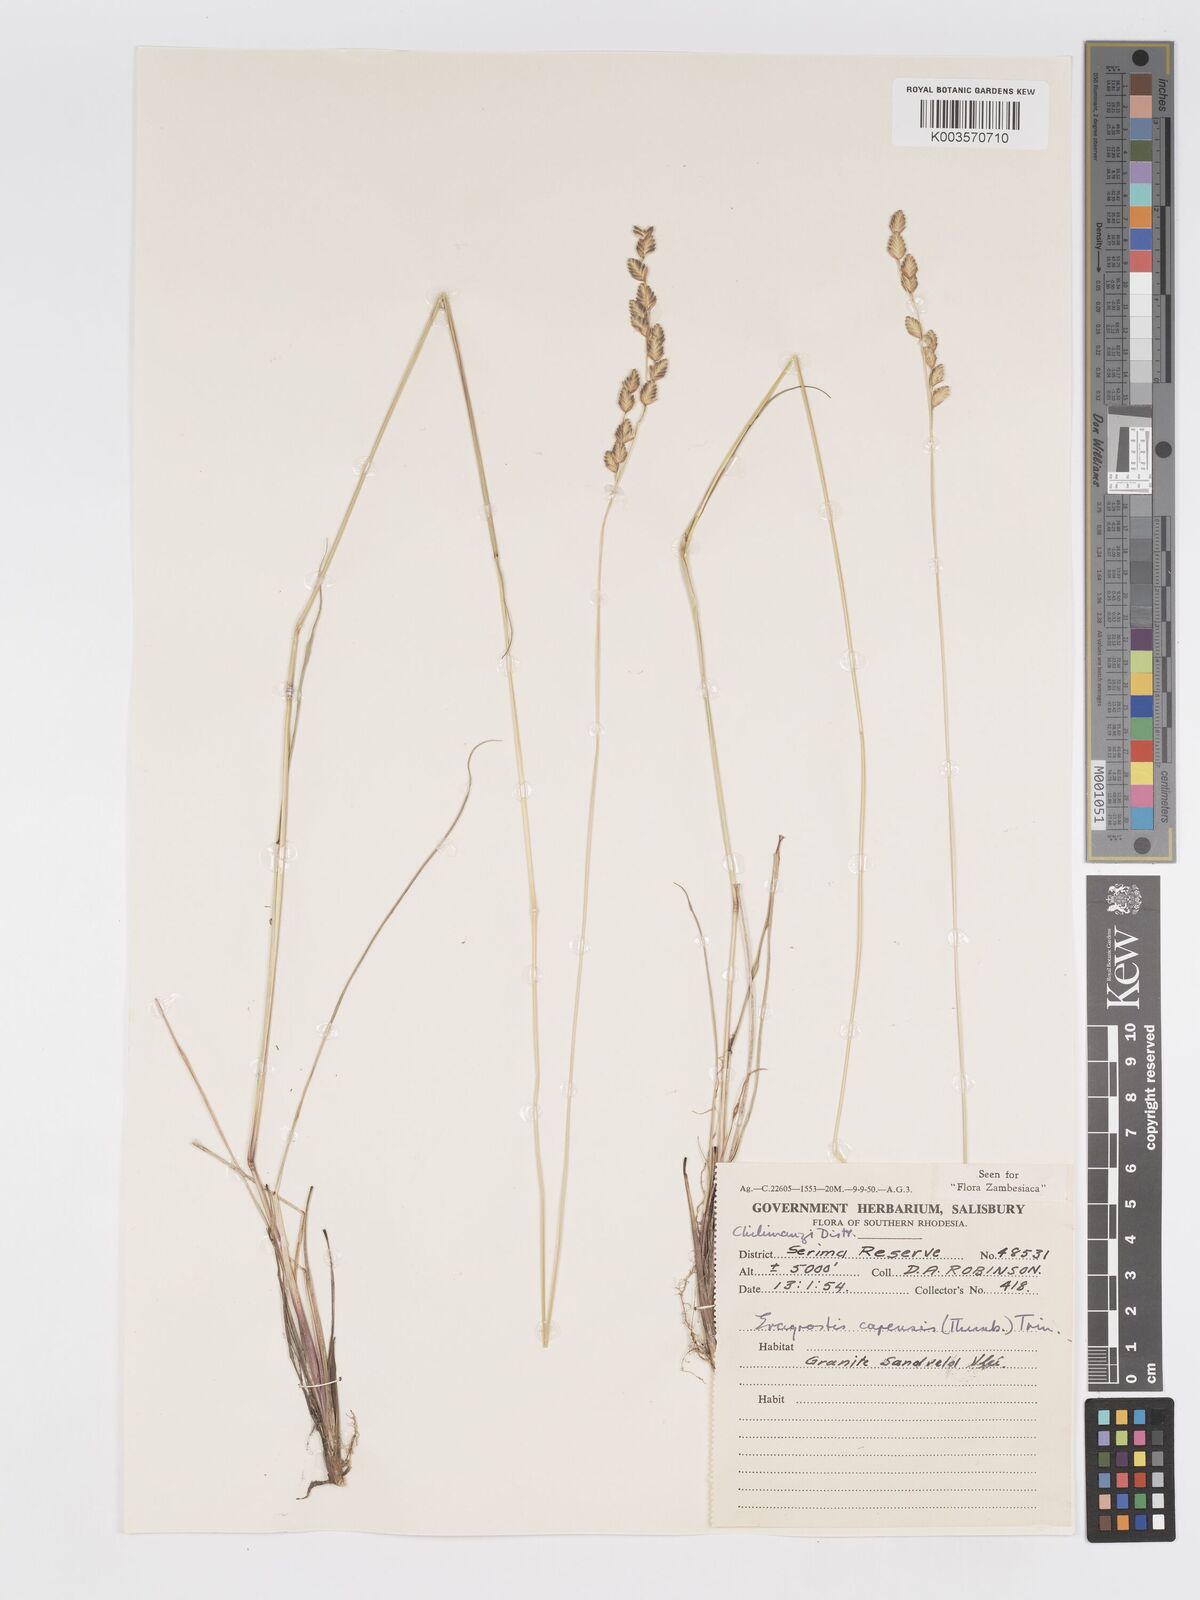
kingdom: Plantae
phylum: Tracheophyta
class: Liliopsida
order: Poales
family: Poaceae
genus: Eragrostis
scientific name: Eragrostis capensis
